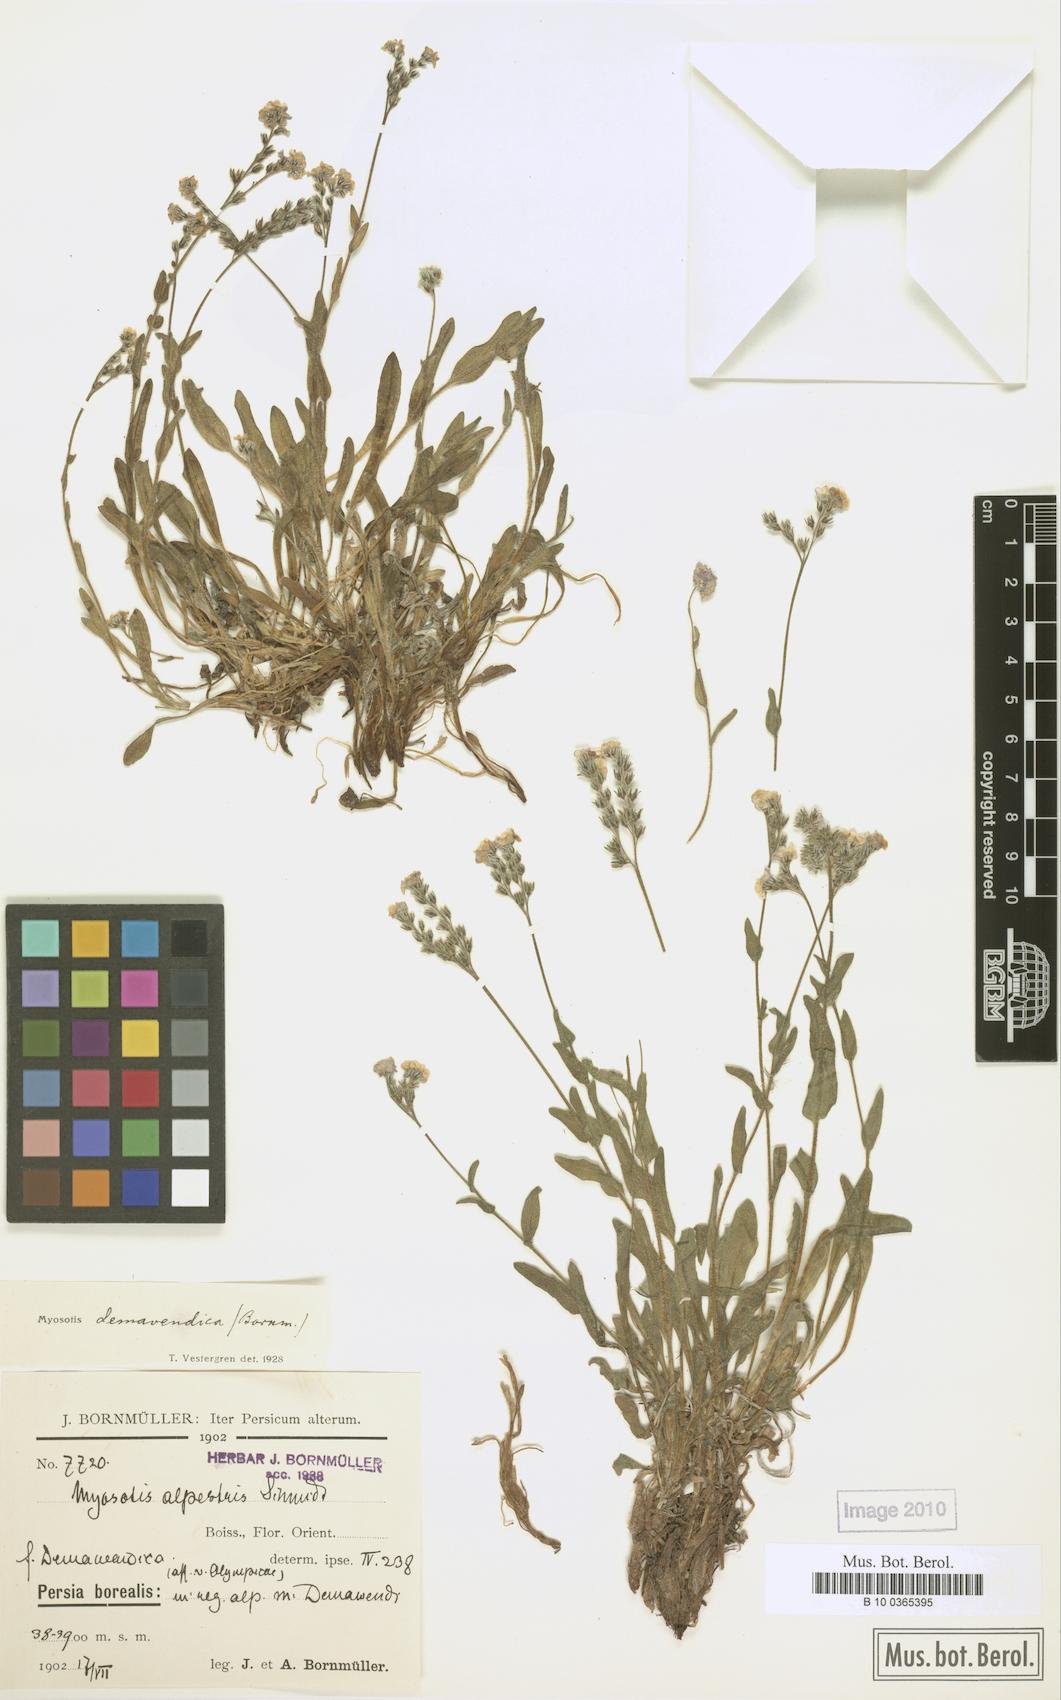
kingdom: Plantae
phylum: Tracheophyta
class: Magnoliopsida
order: Boraginales
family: Boraginaceae
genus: Myosotis
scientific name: Myosotis olympica
